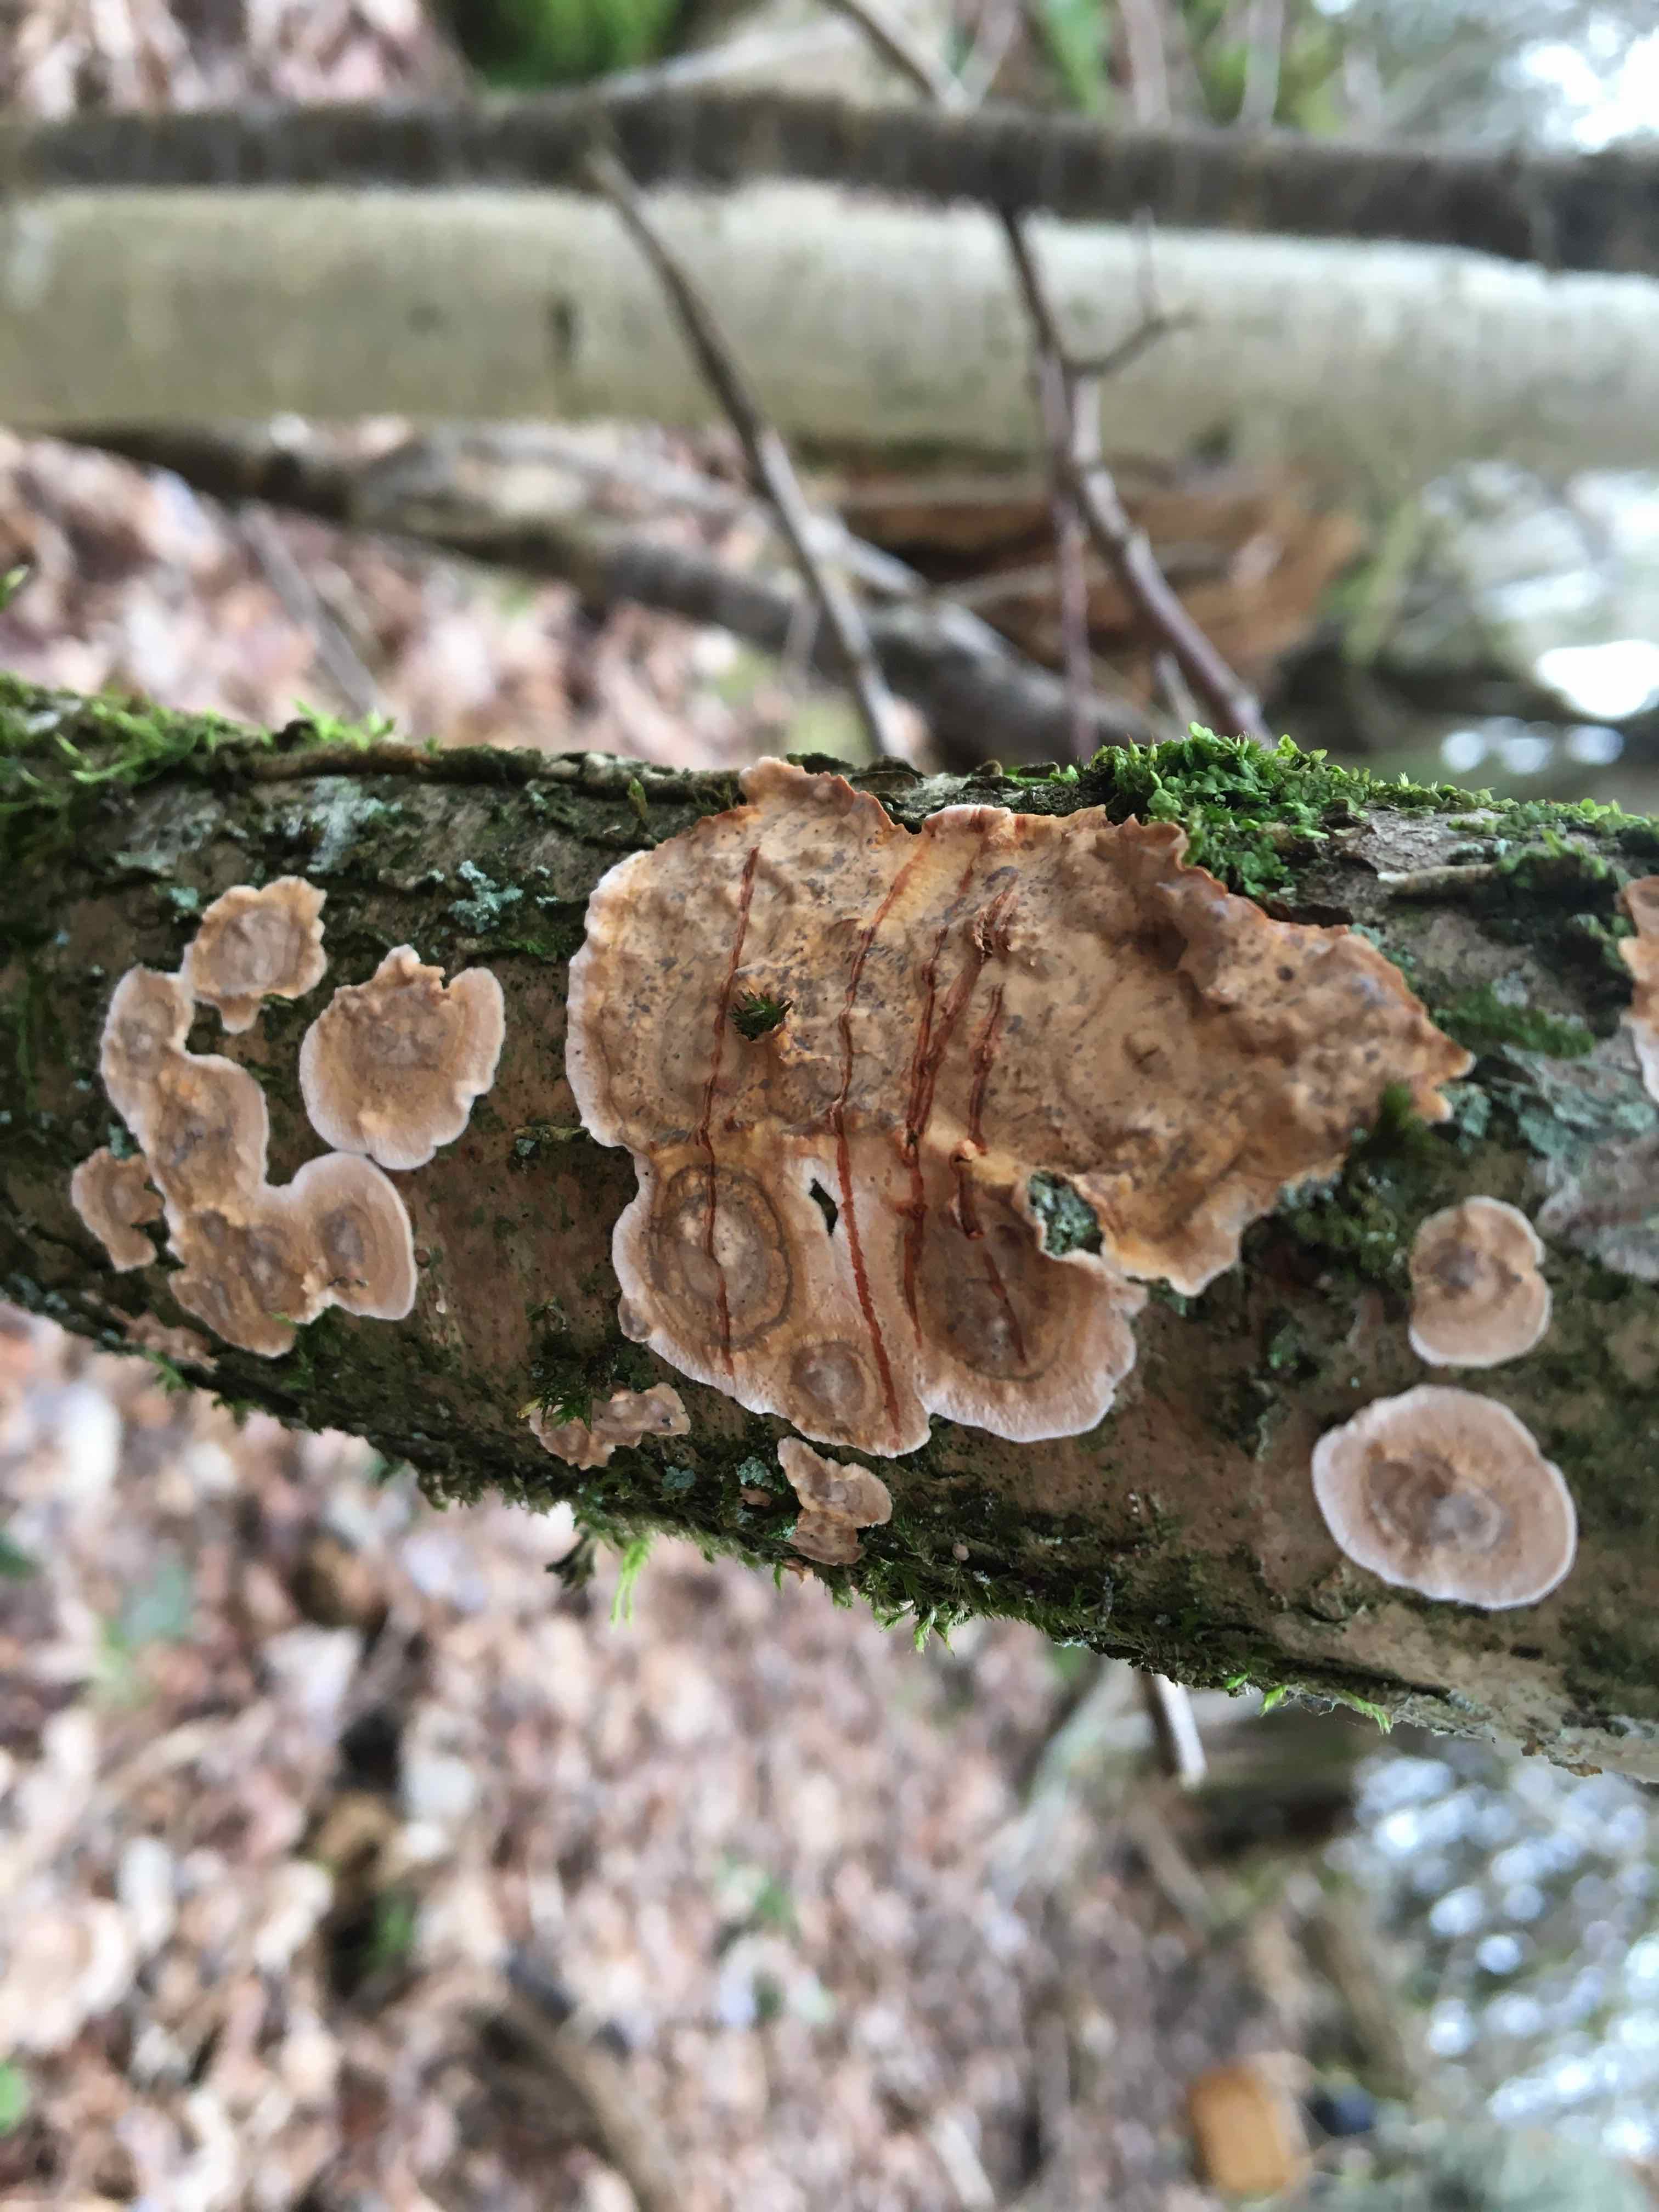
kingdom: Fungi
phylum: Basidiomycota
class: Agaricomycetes
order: Russulales
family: Stereaceae
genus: Stereum
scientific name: Stereum rugosum
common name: rynket lædersvamp
